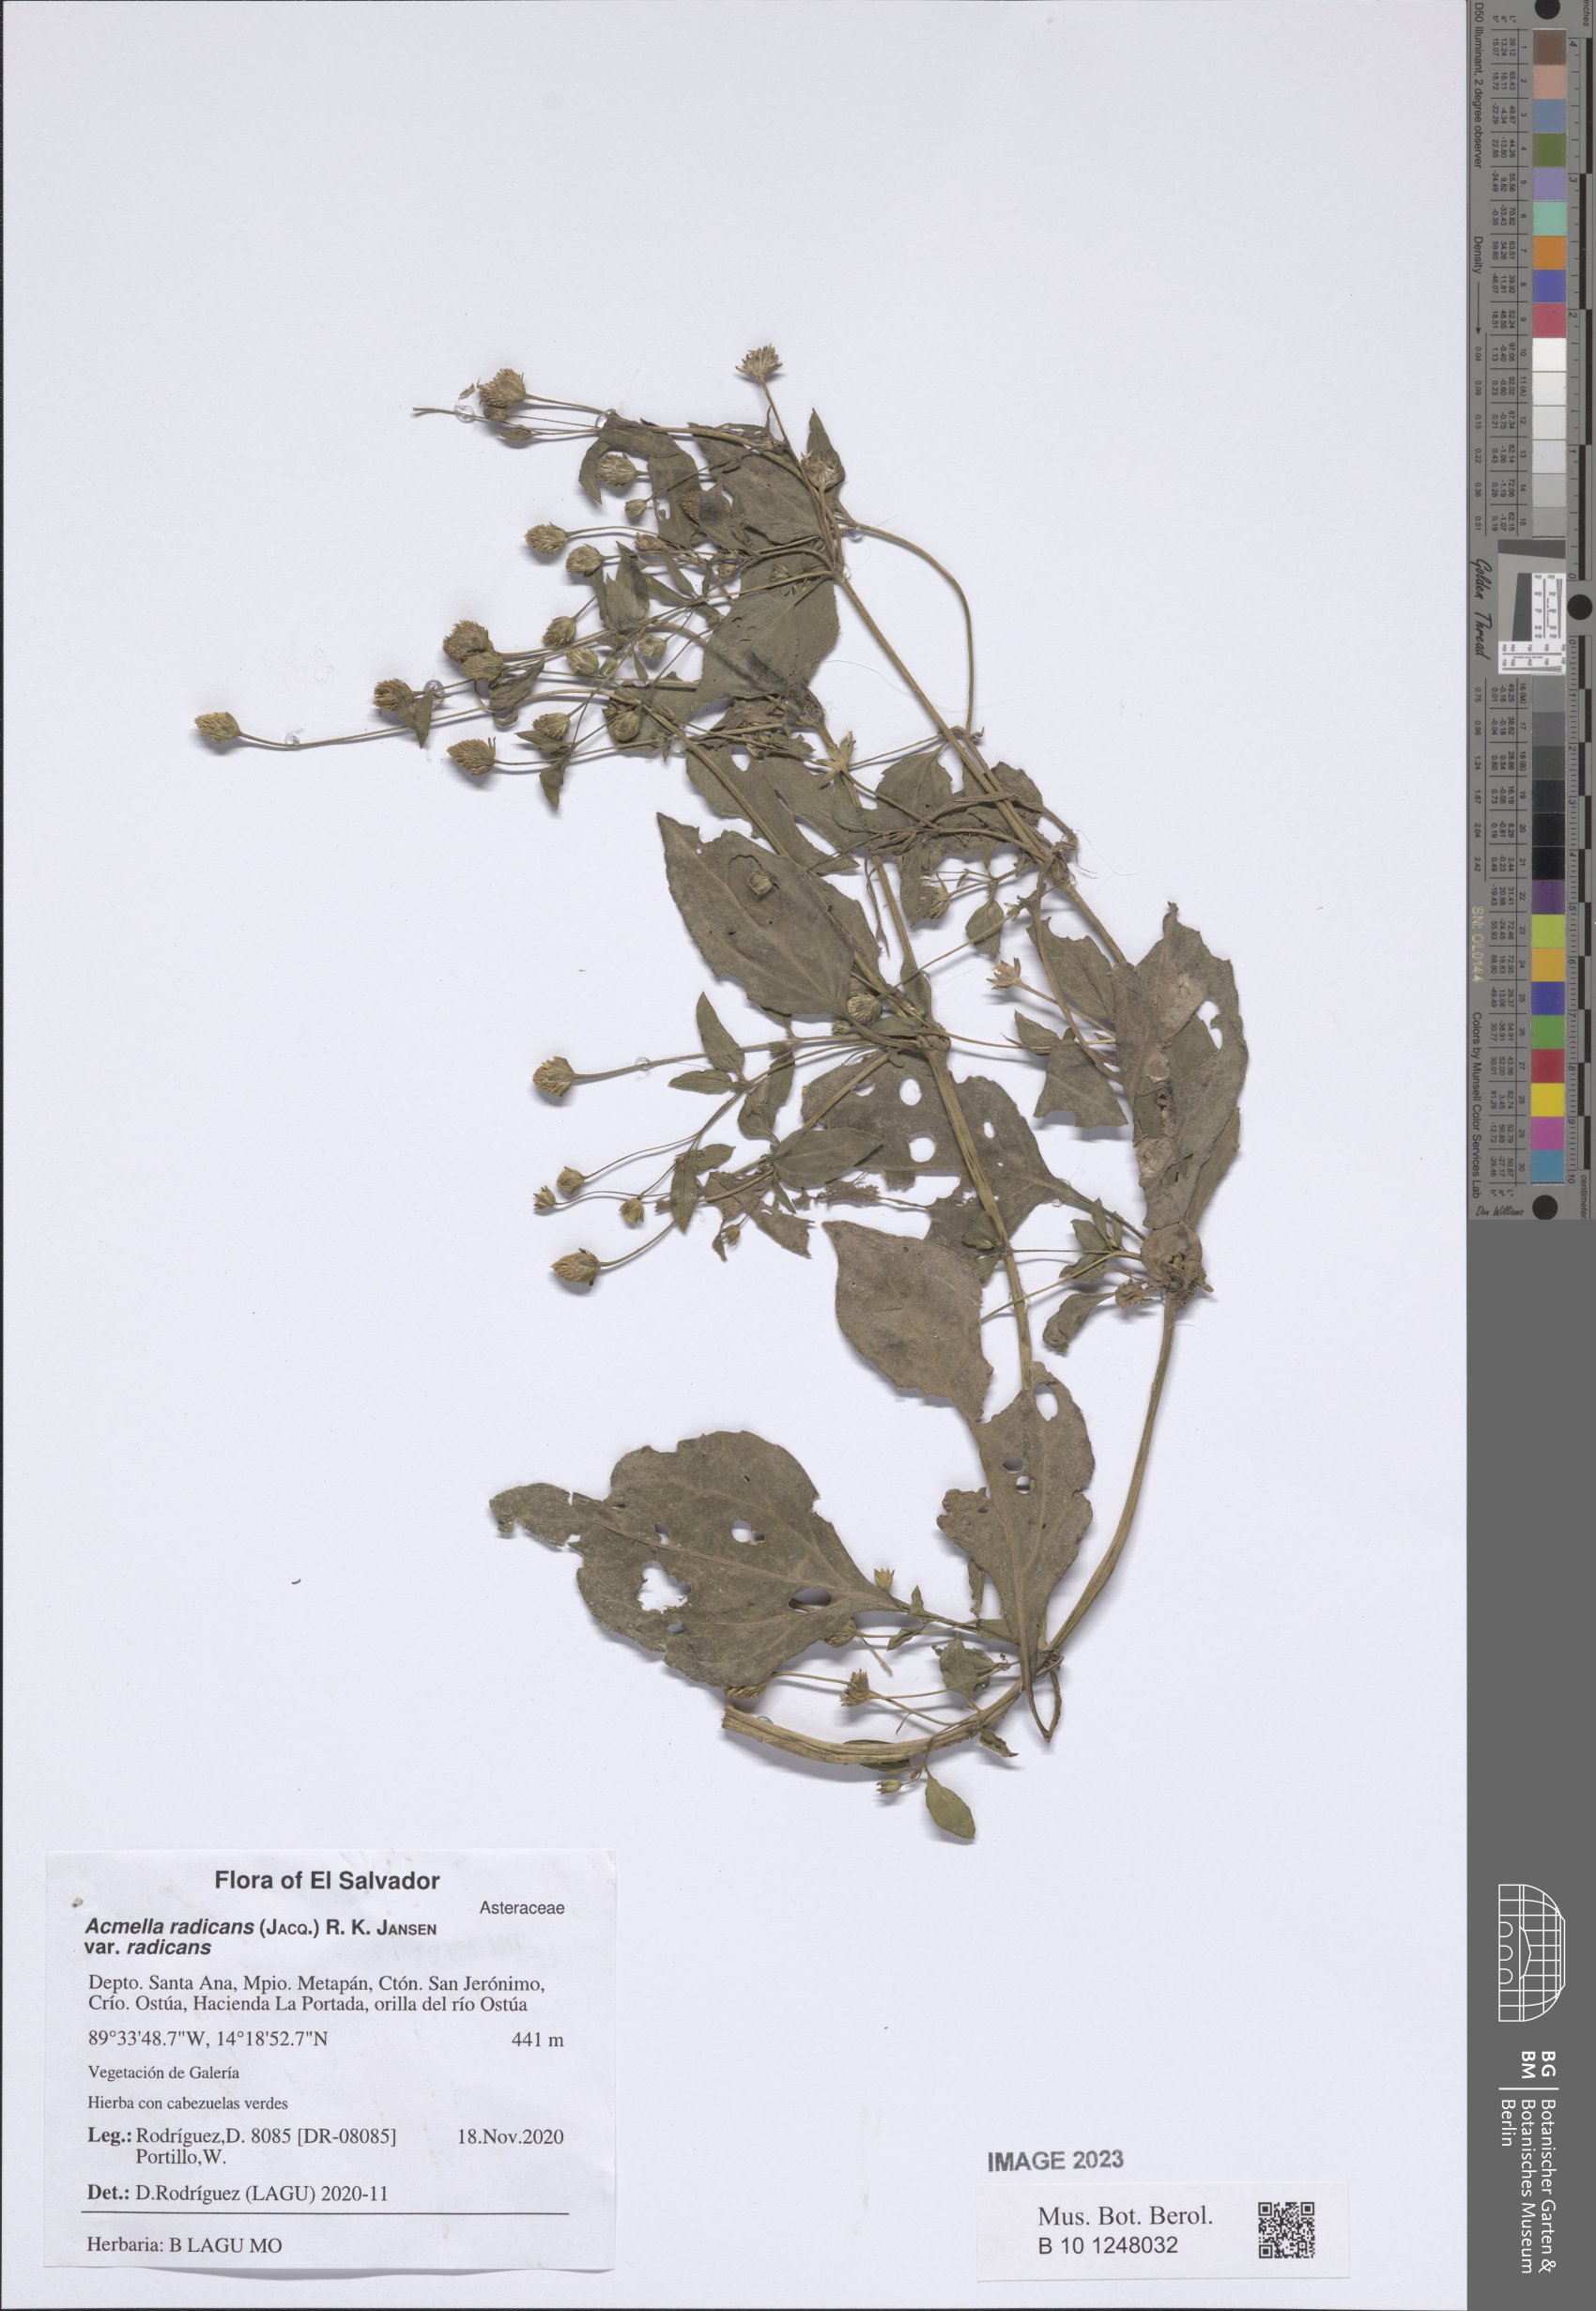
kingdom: Plantae
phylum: Tracheophyta
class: Magnoliopsida
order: Asterales
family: Asteraceae
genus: Acmella
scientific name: Acmella radicans
